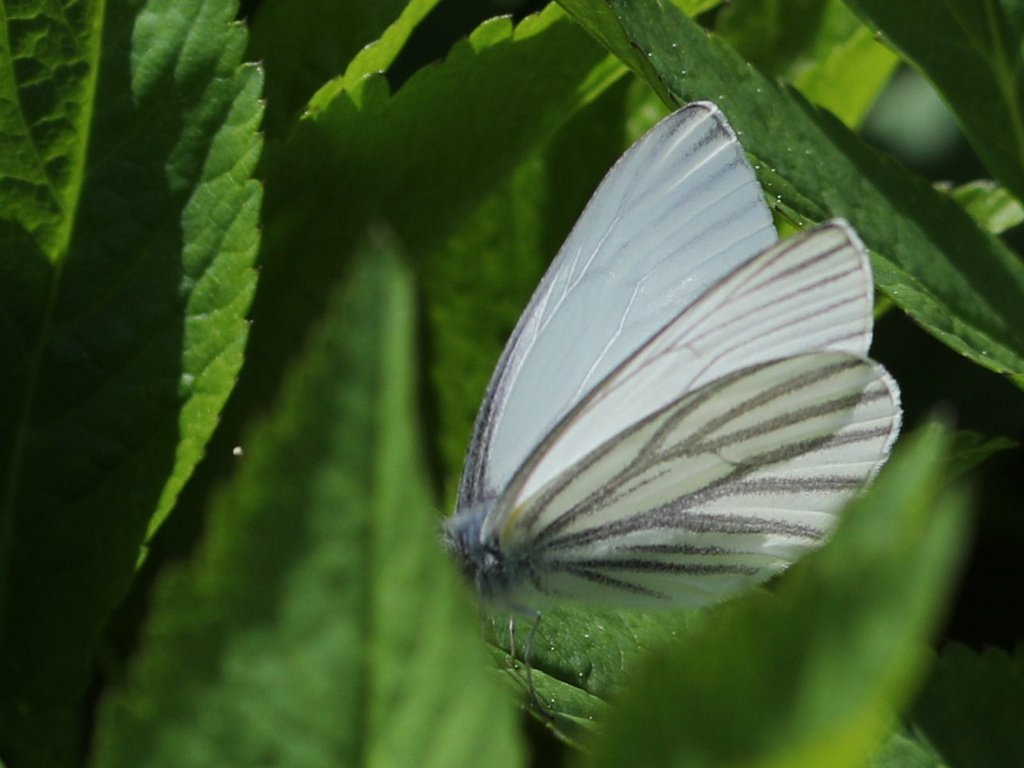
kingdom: Animalia
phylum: Arthropoda
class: Insecta
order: Lepidoptera
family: Pieridae
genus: Pieris
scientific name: Pieris oleracea
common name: Mustard White
